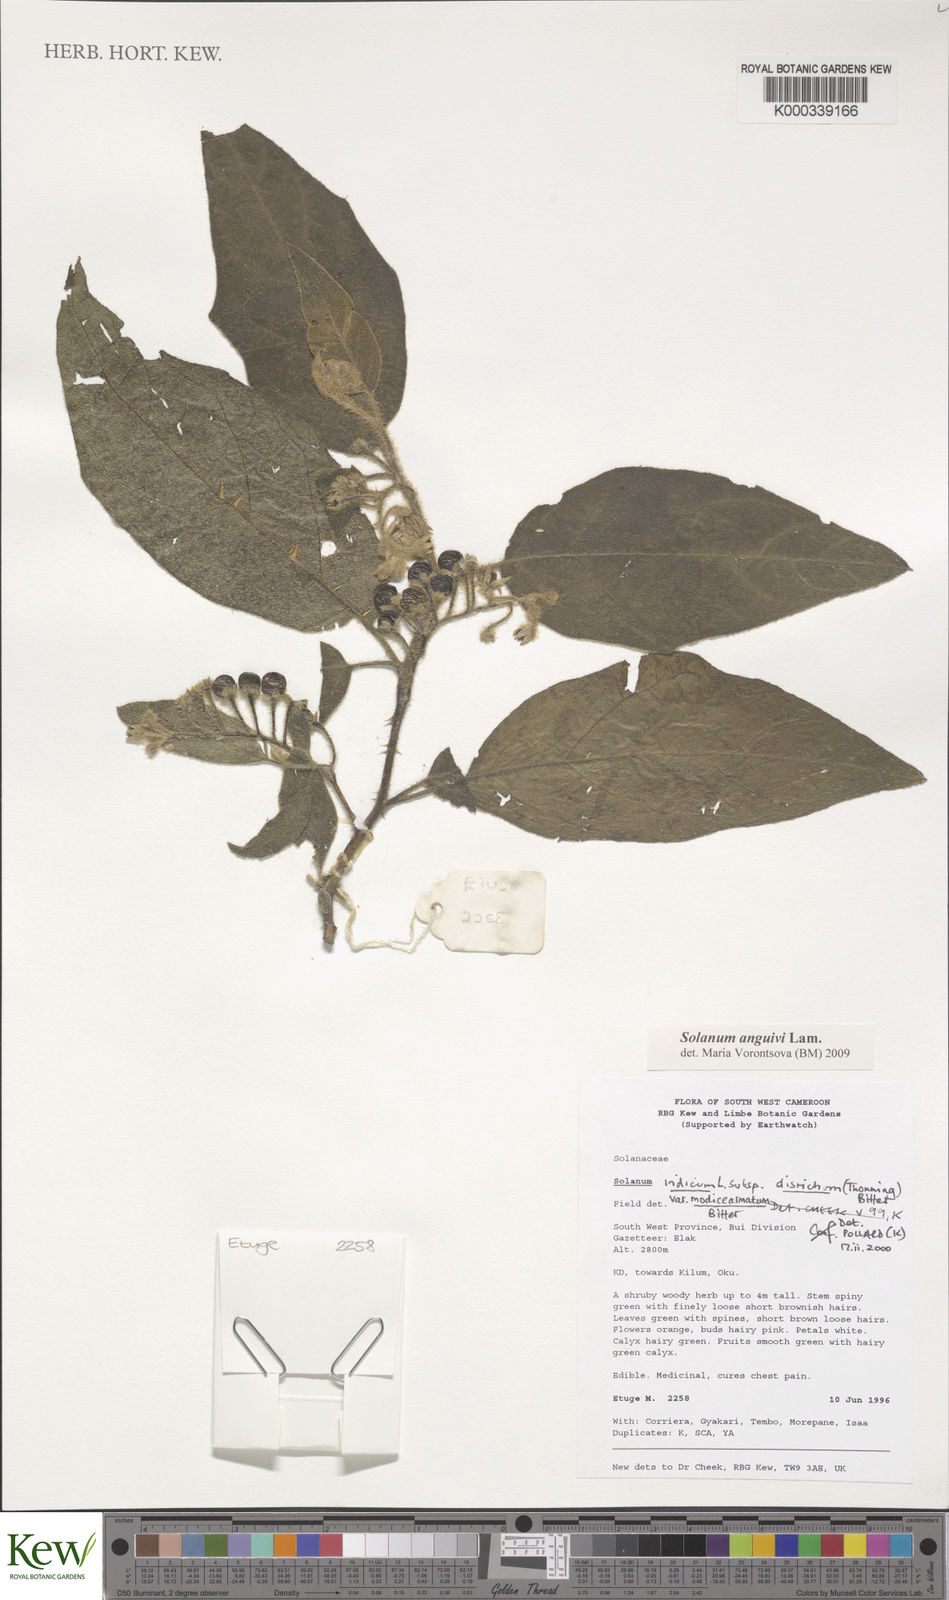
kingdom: Plantae
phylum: Tracheophyta
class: Magnoliopsida
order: Solanales
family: Solanaceae
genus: Solanum
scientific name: Solanum violaceum
